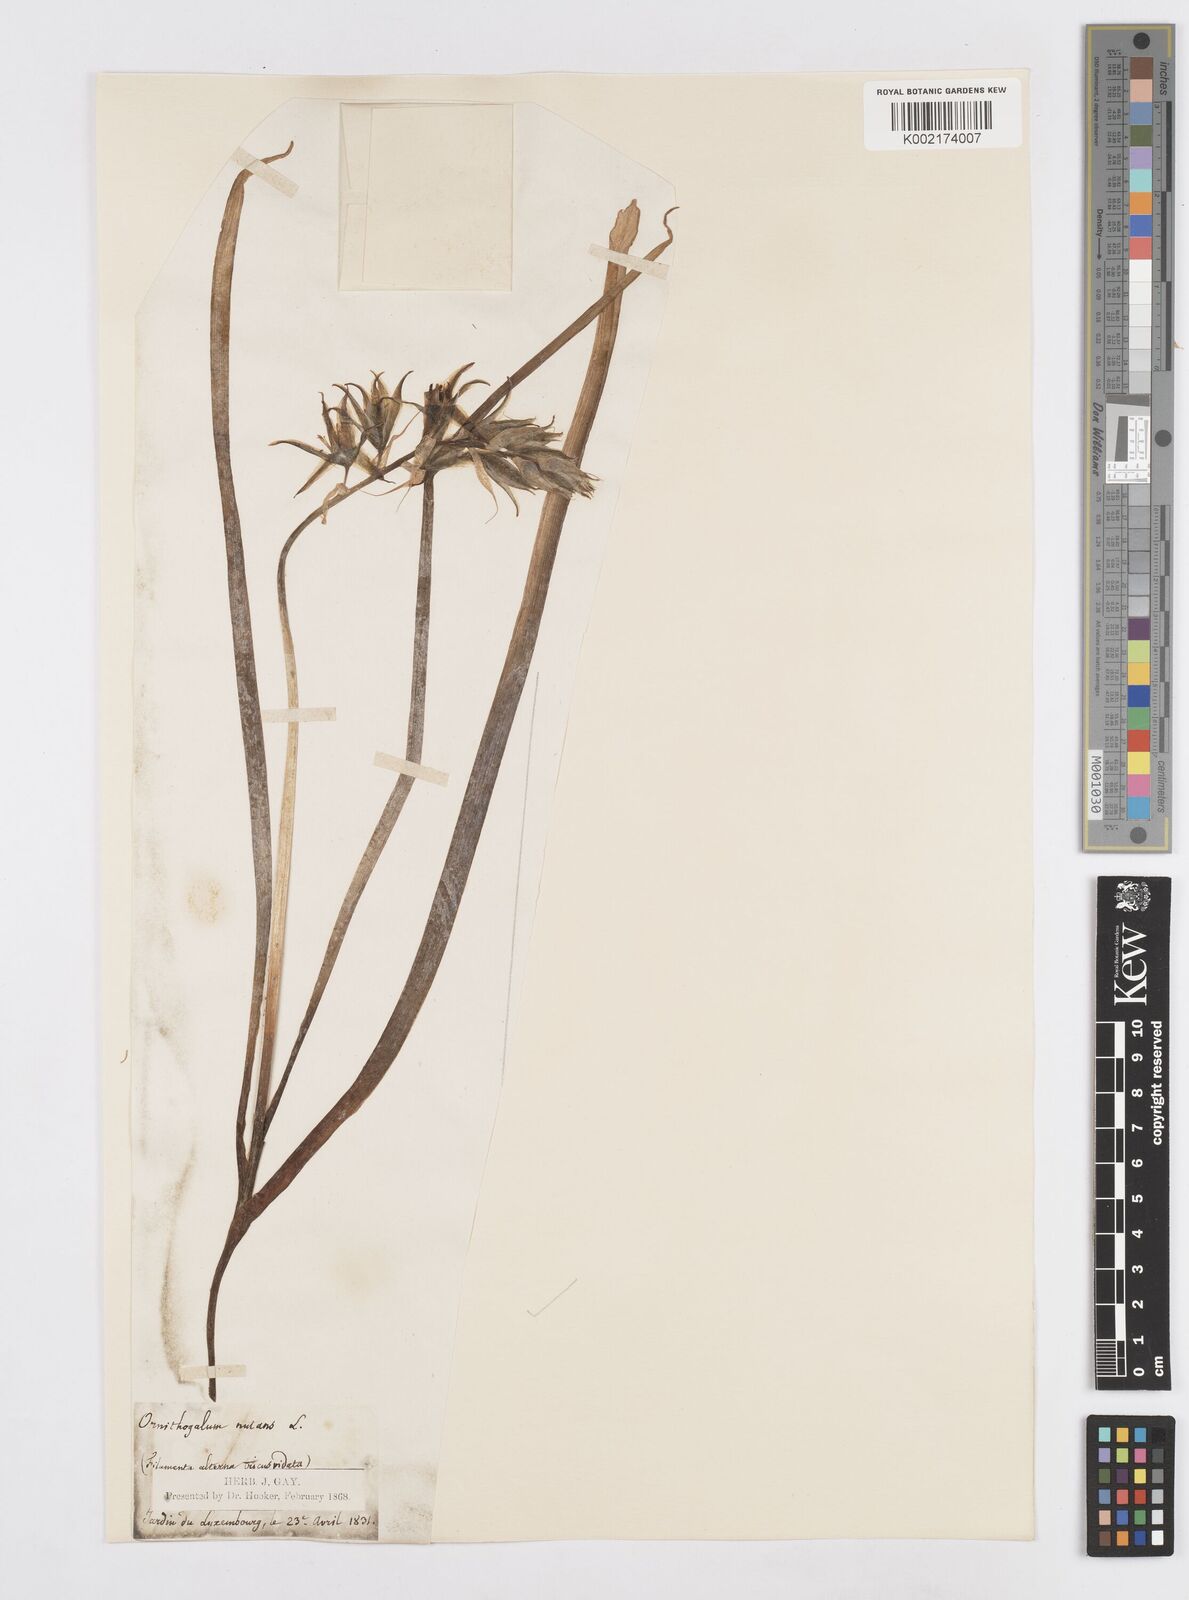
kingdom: Plantae
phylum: Tracheophyta
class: Liliopsida
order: Asparagales
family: Asparagaceae
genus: Ornithogalum
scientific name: Ornithogalum nutans
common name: Drooping star-of-bethlehem
